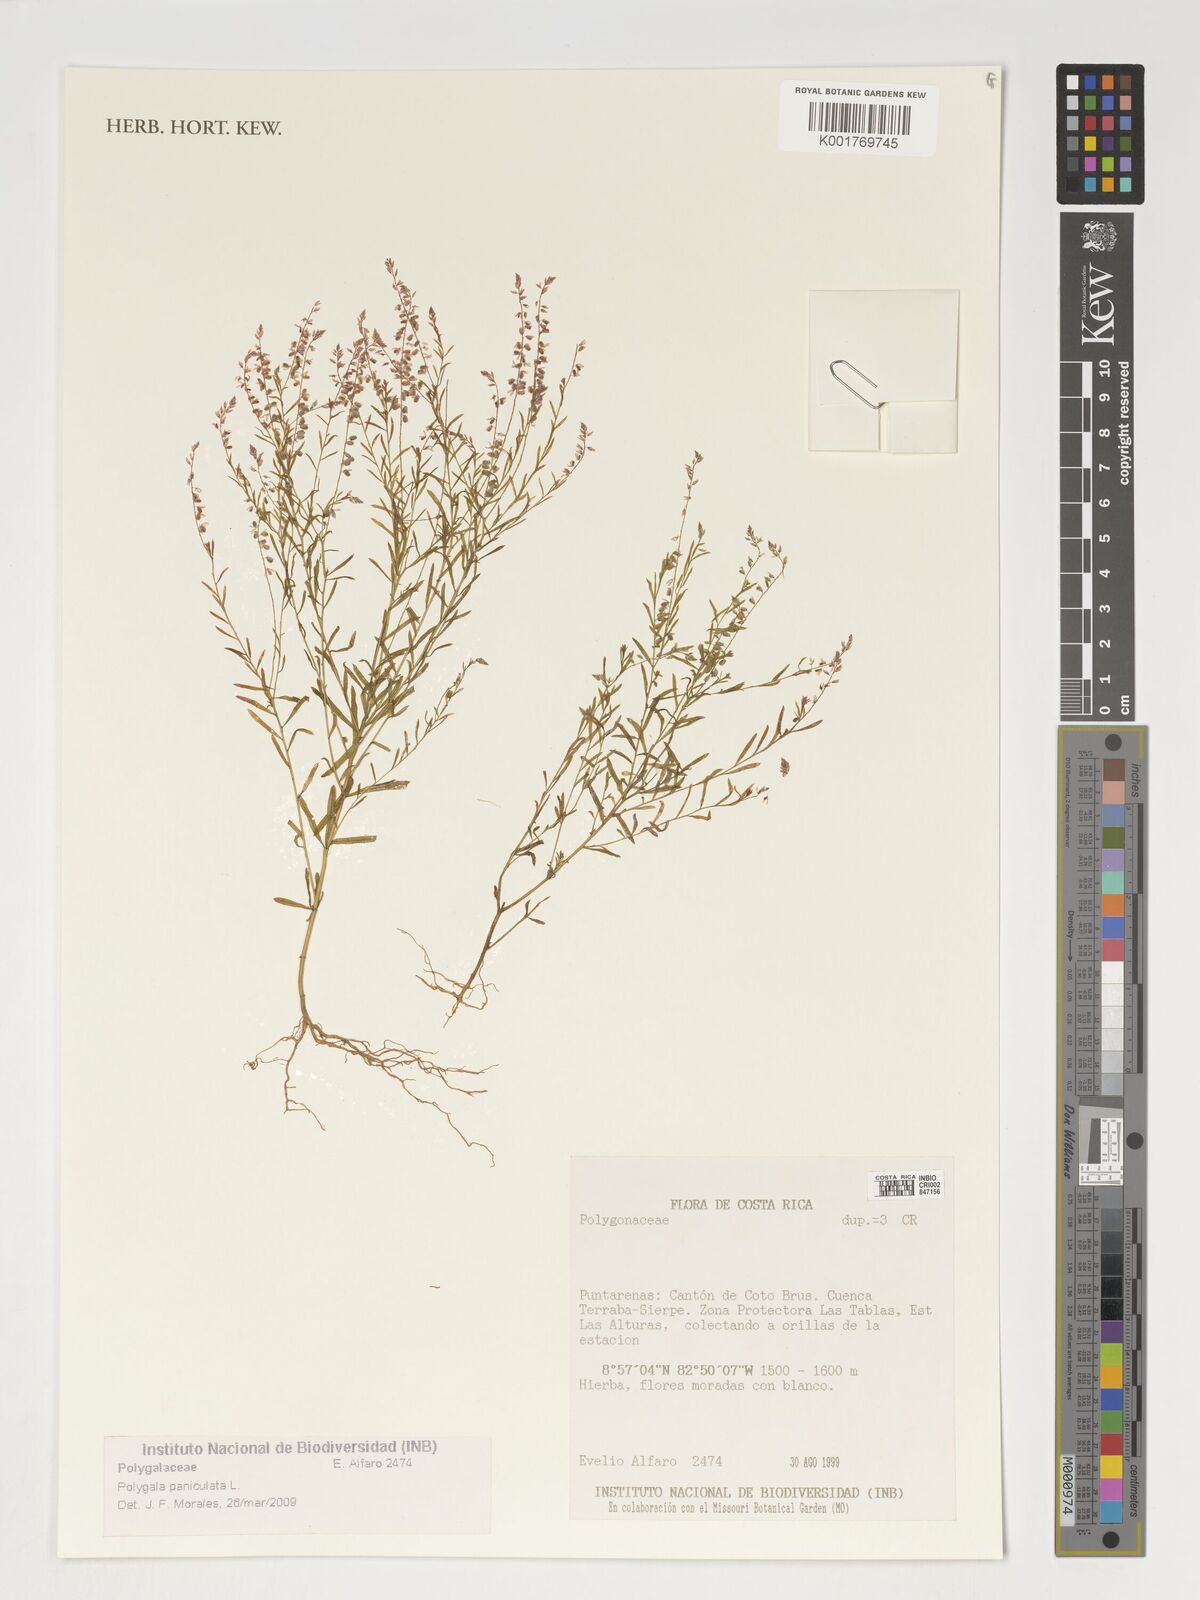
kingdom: Plantae
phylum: Tracheophyta
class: Magnoliopsida
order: Fabales
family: Polygalaceae
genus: Polygala
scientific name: Polygala paniculata
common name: Orosne
